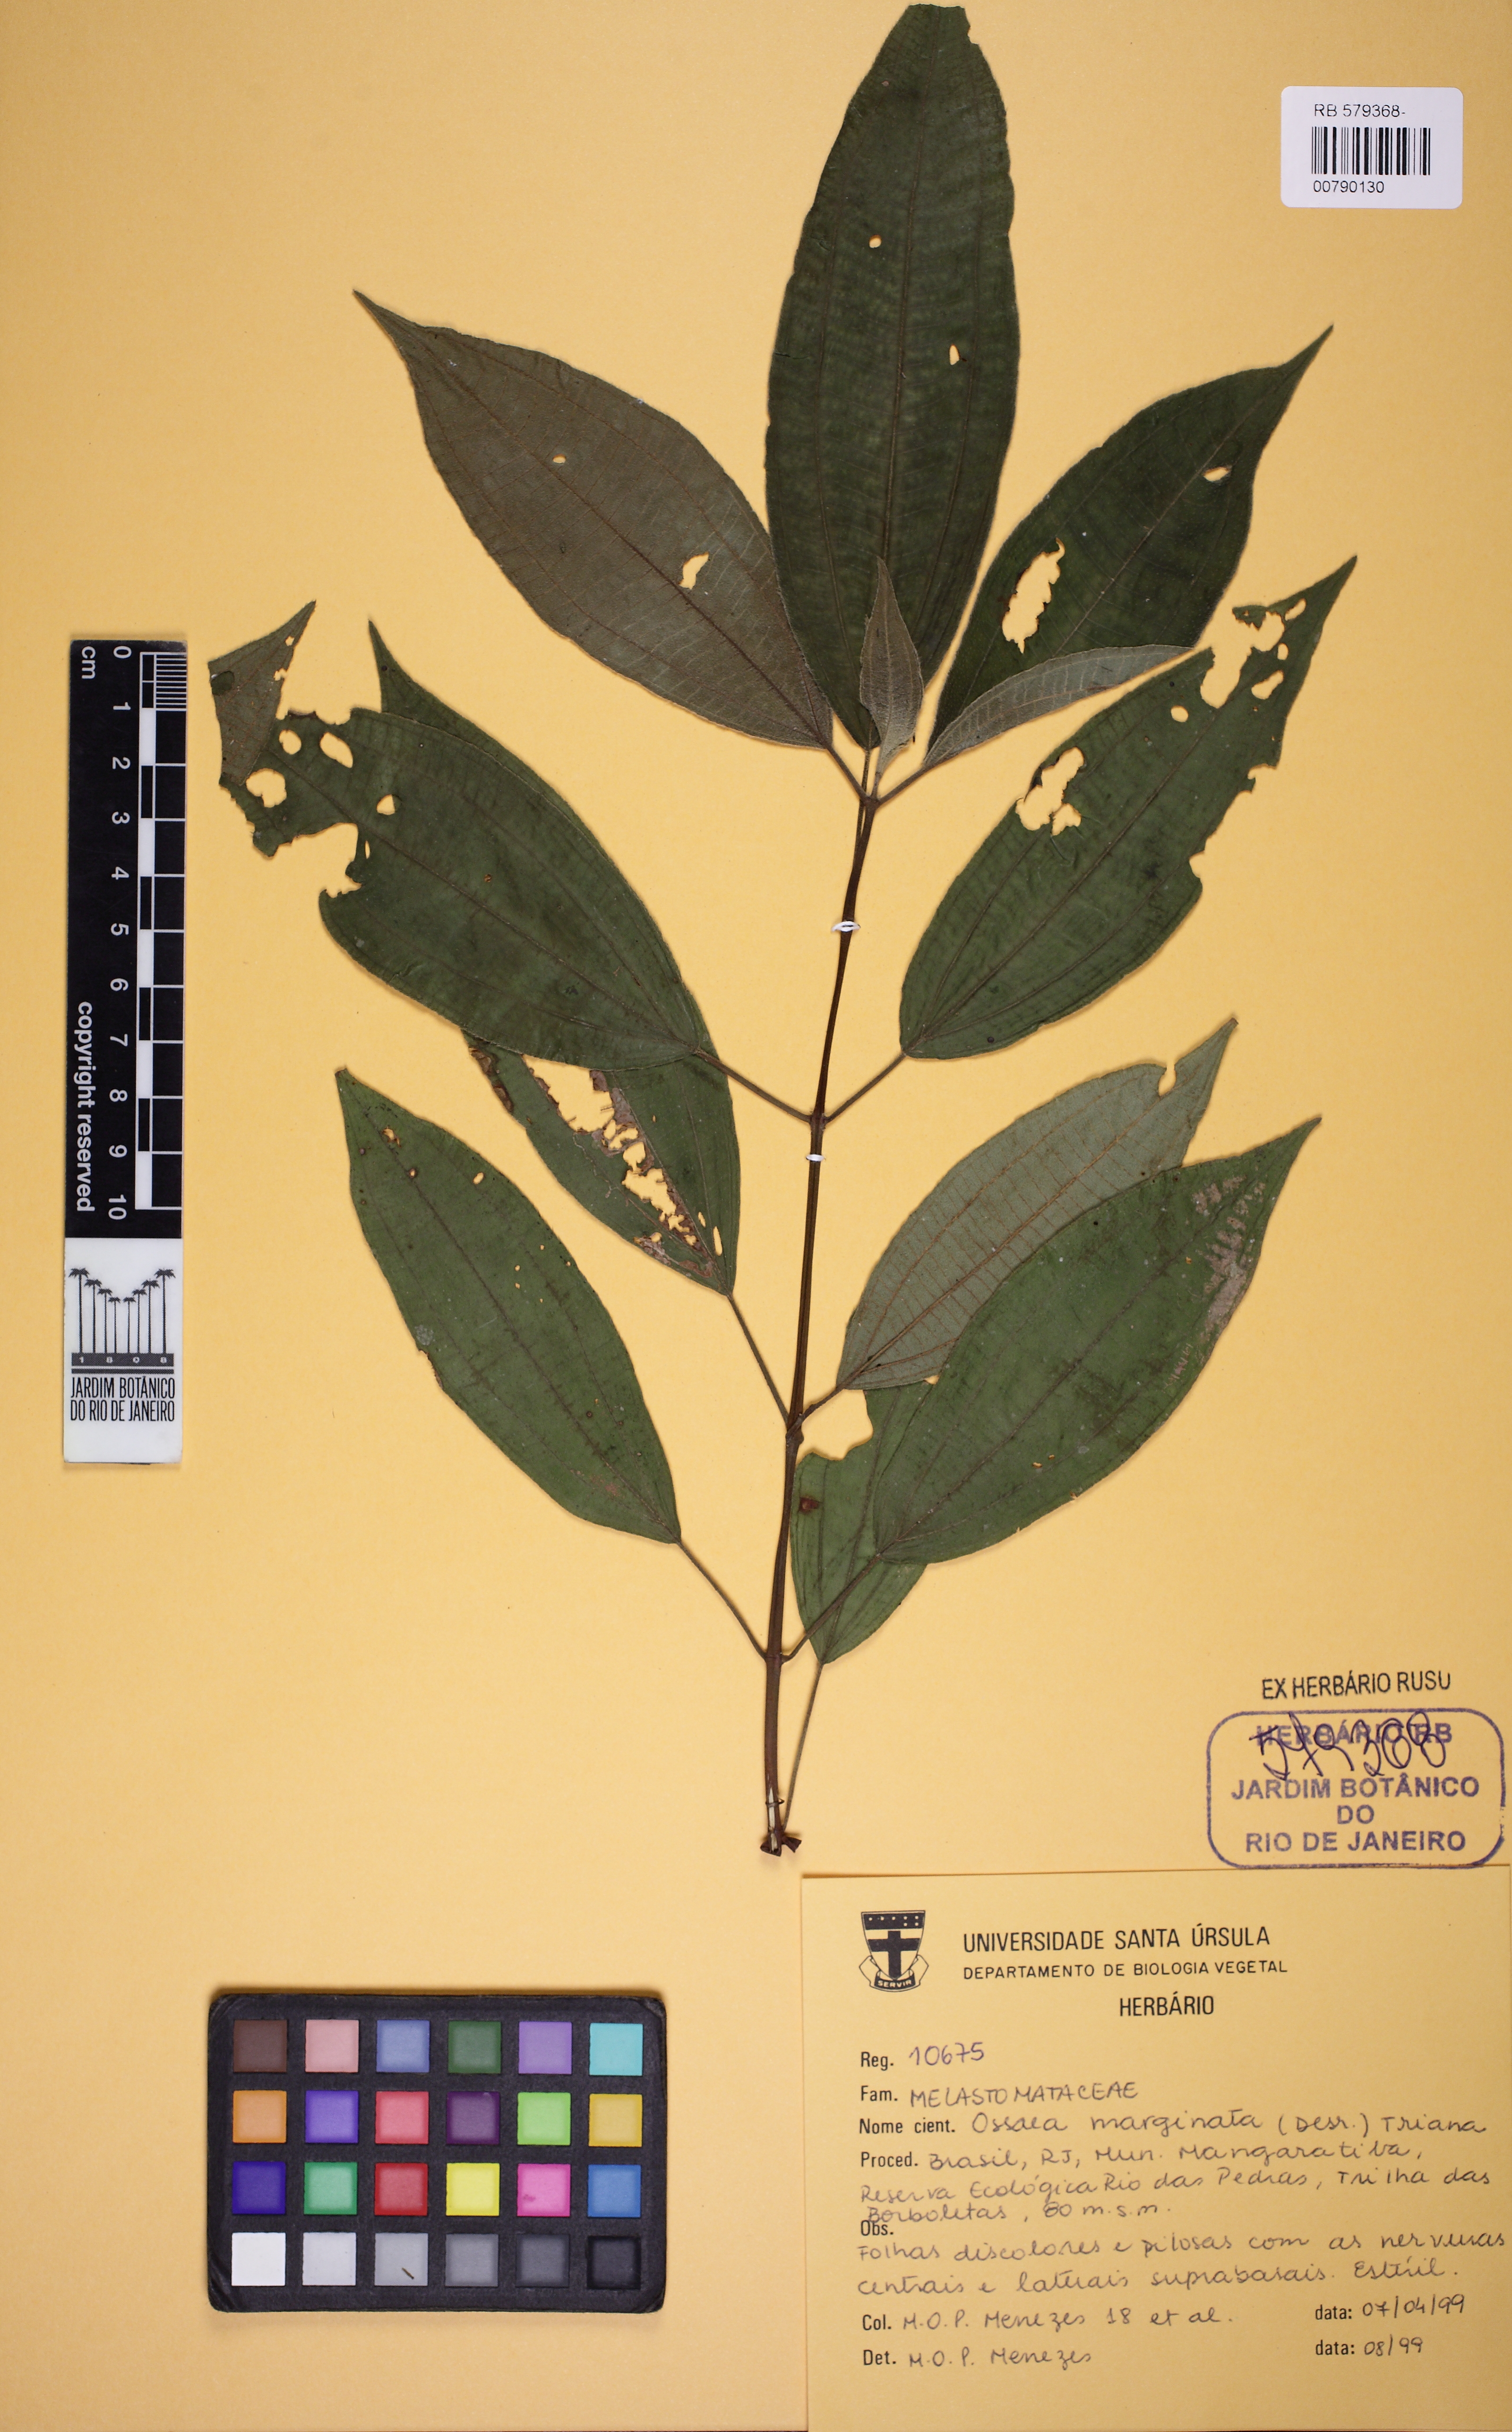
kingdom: Plantae
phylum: Tracheophyta
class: Magnoliopsida
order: Myrtales
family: Melastomataceae
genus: Miconia
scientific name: Miconia leamarginata
